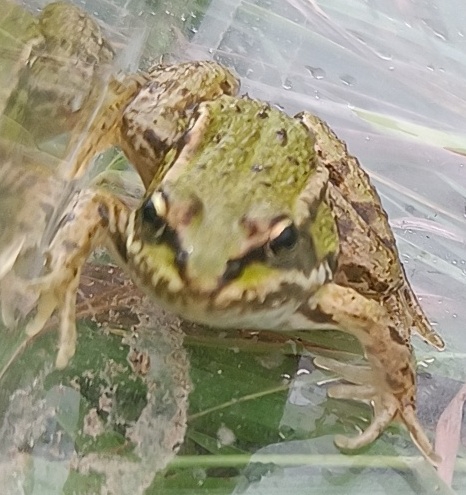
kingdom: Animalia
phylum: Chordata
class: Amphibia
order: Anura
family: Ranidae
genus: Pelophylax
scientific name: Pelophylax lessonae
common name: Grøn frø
